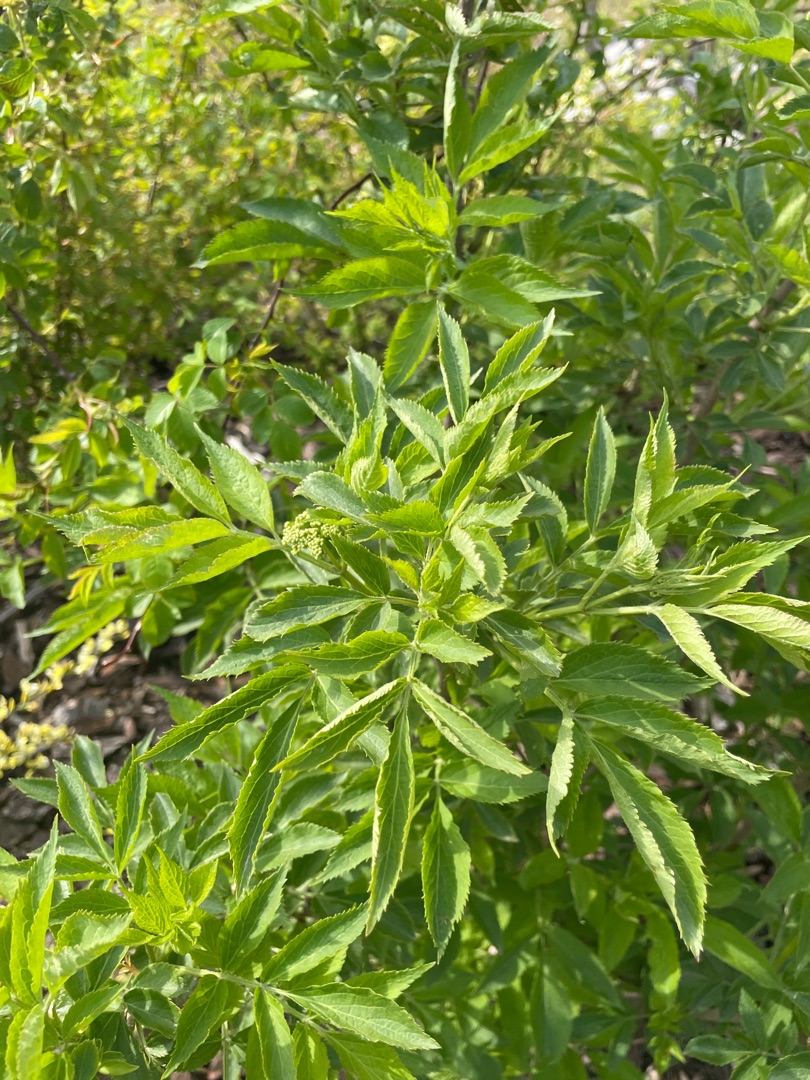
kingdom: Plantae
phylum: Tracheophyta
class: Magnoliopsida
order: Dipsacales
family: Viburnaceae
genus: Sambucus
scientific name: Sambucus nigra
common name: Almindelig hyld
